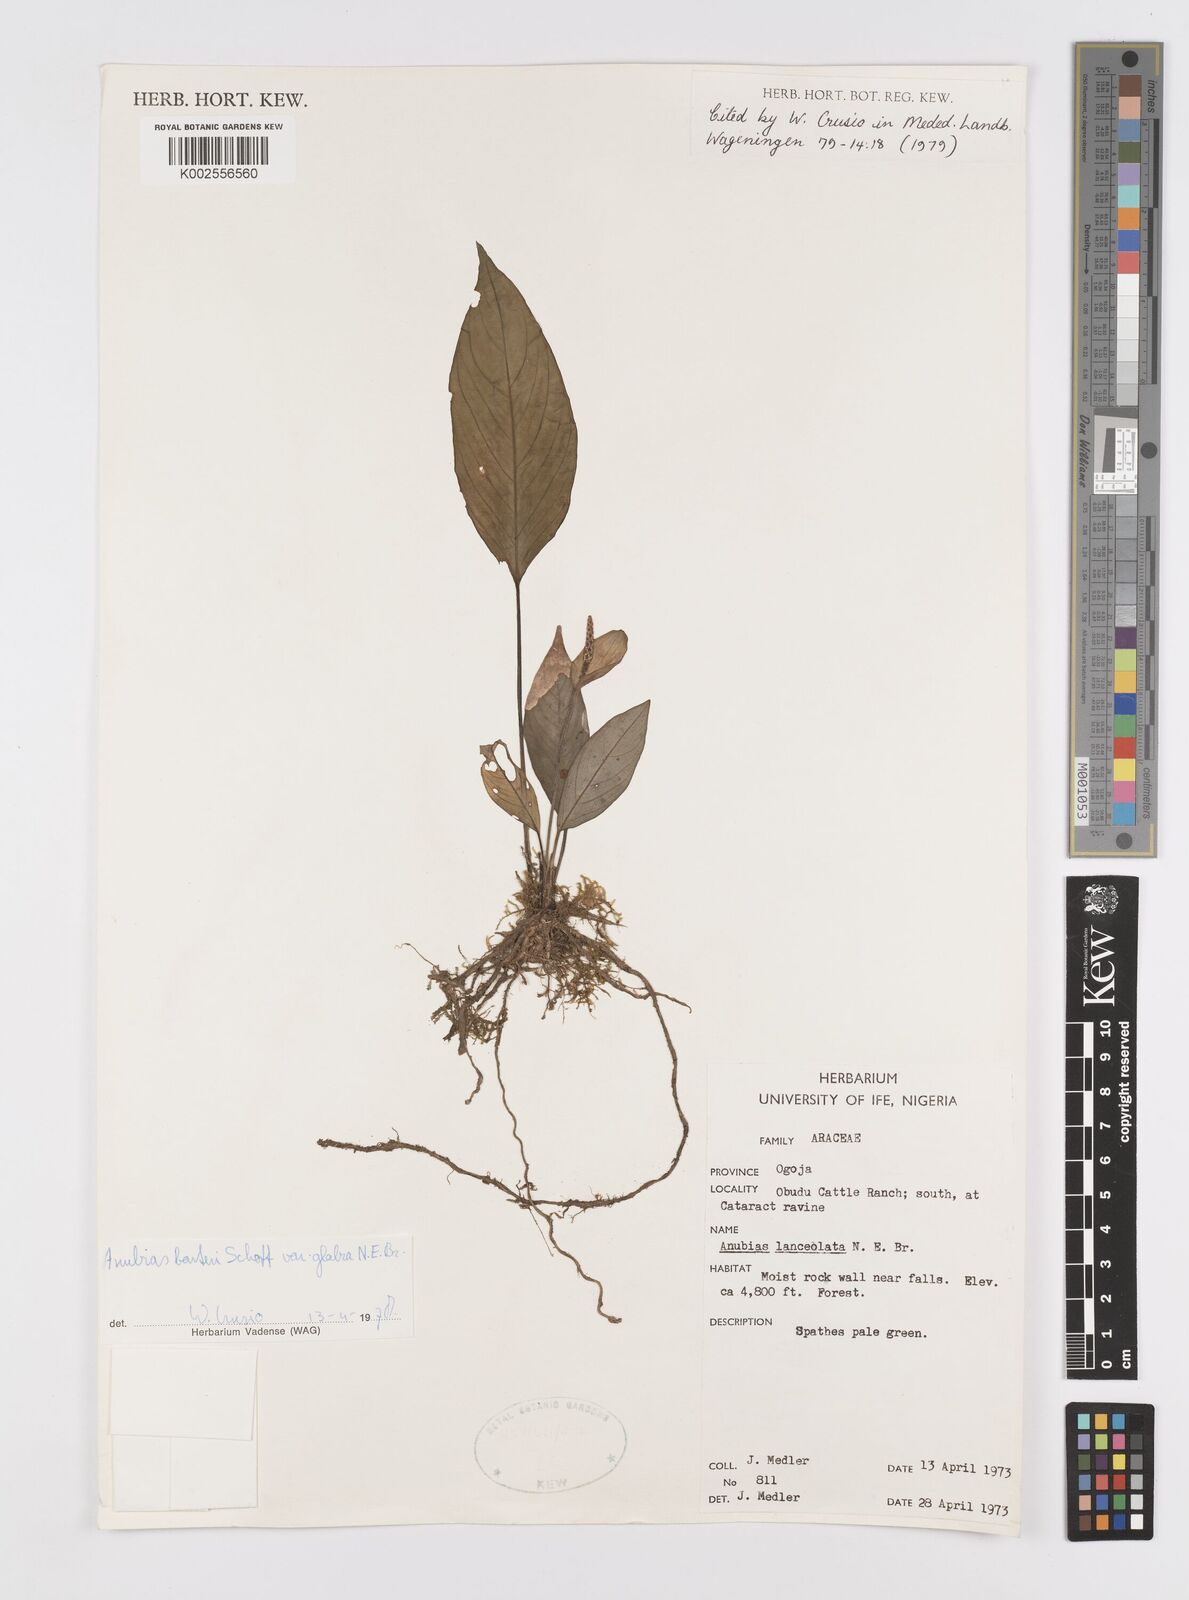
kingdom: Plantae
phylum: Tracheophyta
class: Liliopsida
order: Alismatales
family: Araceae
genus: Anubias
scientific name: Anubias barteri
